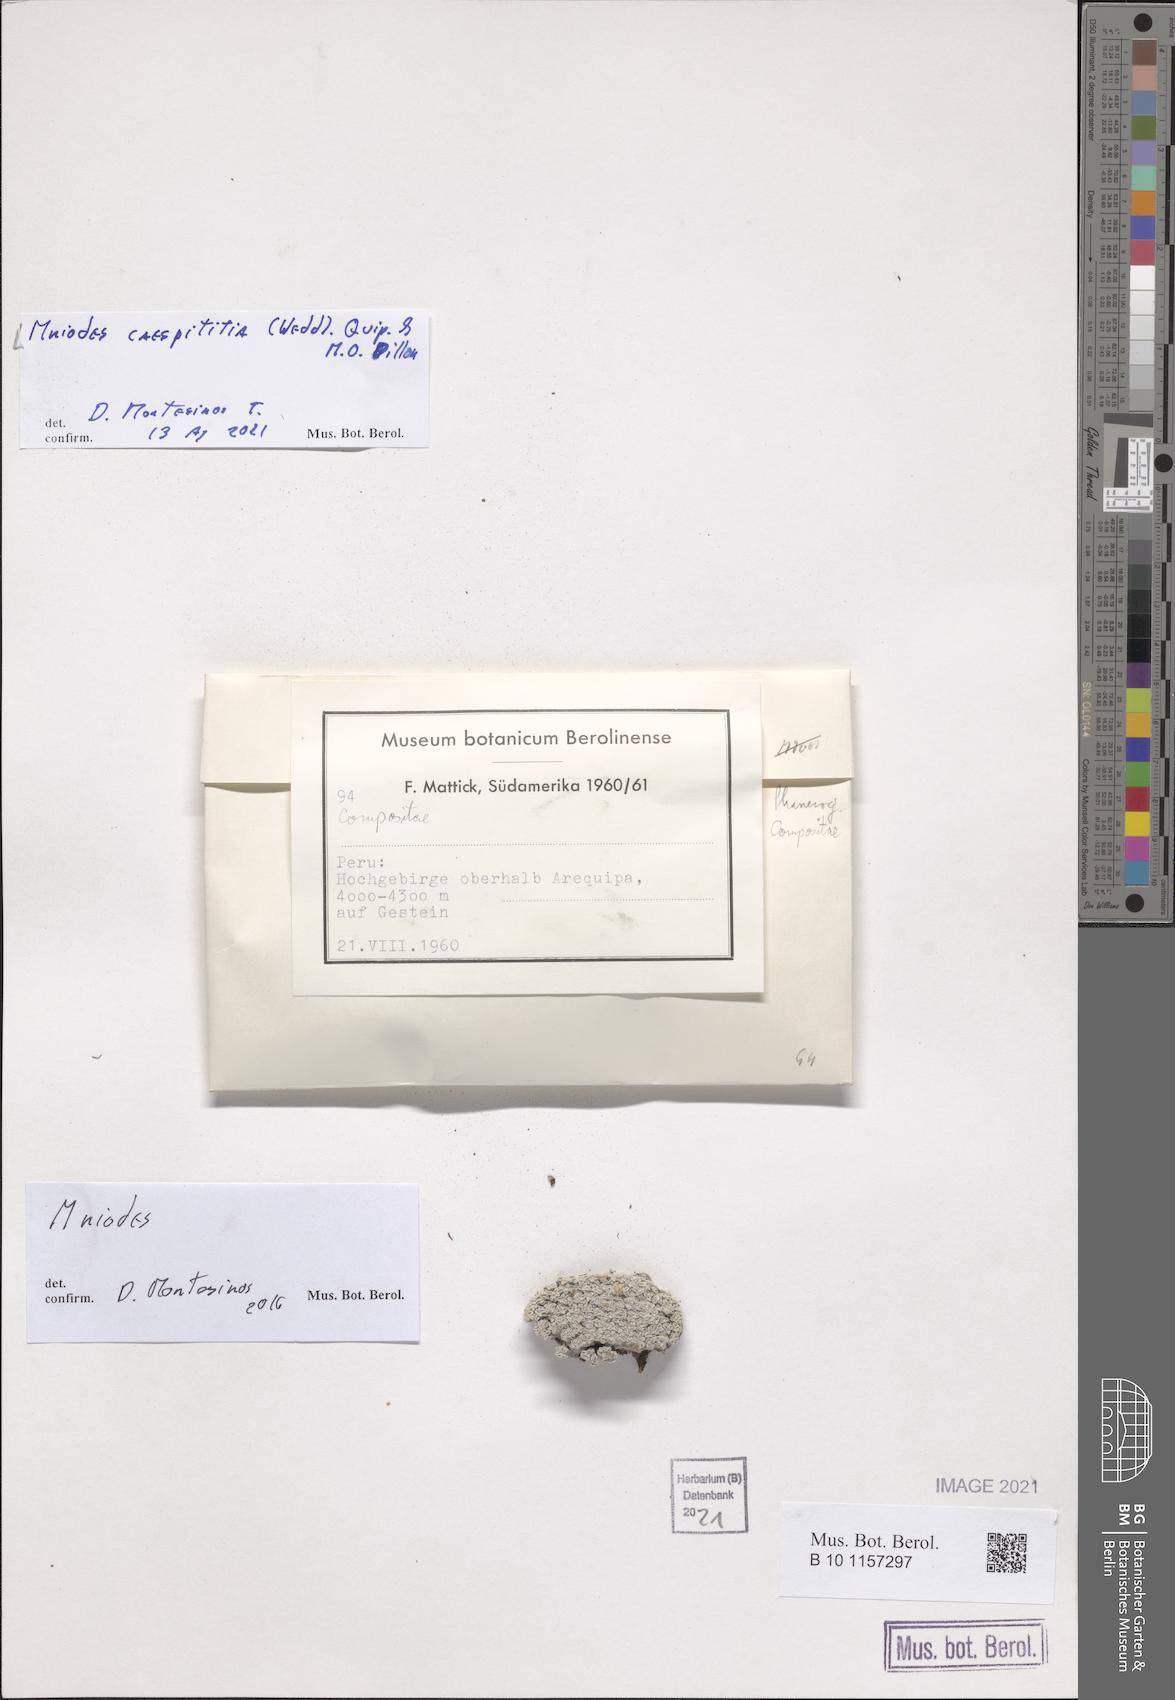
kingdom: Plantae
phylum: Tracheophyta
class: Magnoliopsida
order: Asterales
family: Asteraceae
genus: Mniodes
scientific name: Mniodes caespititia
